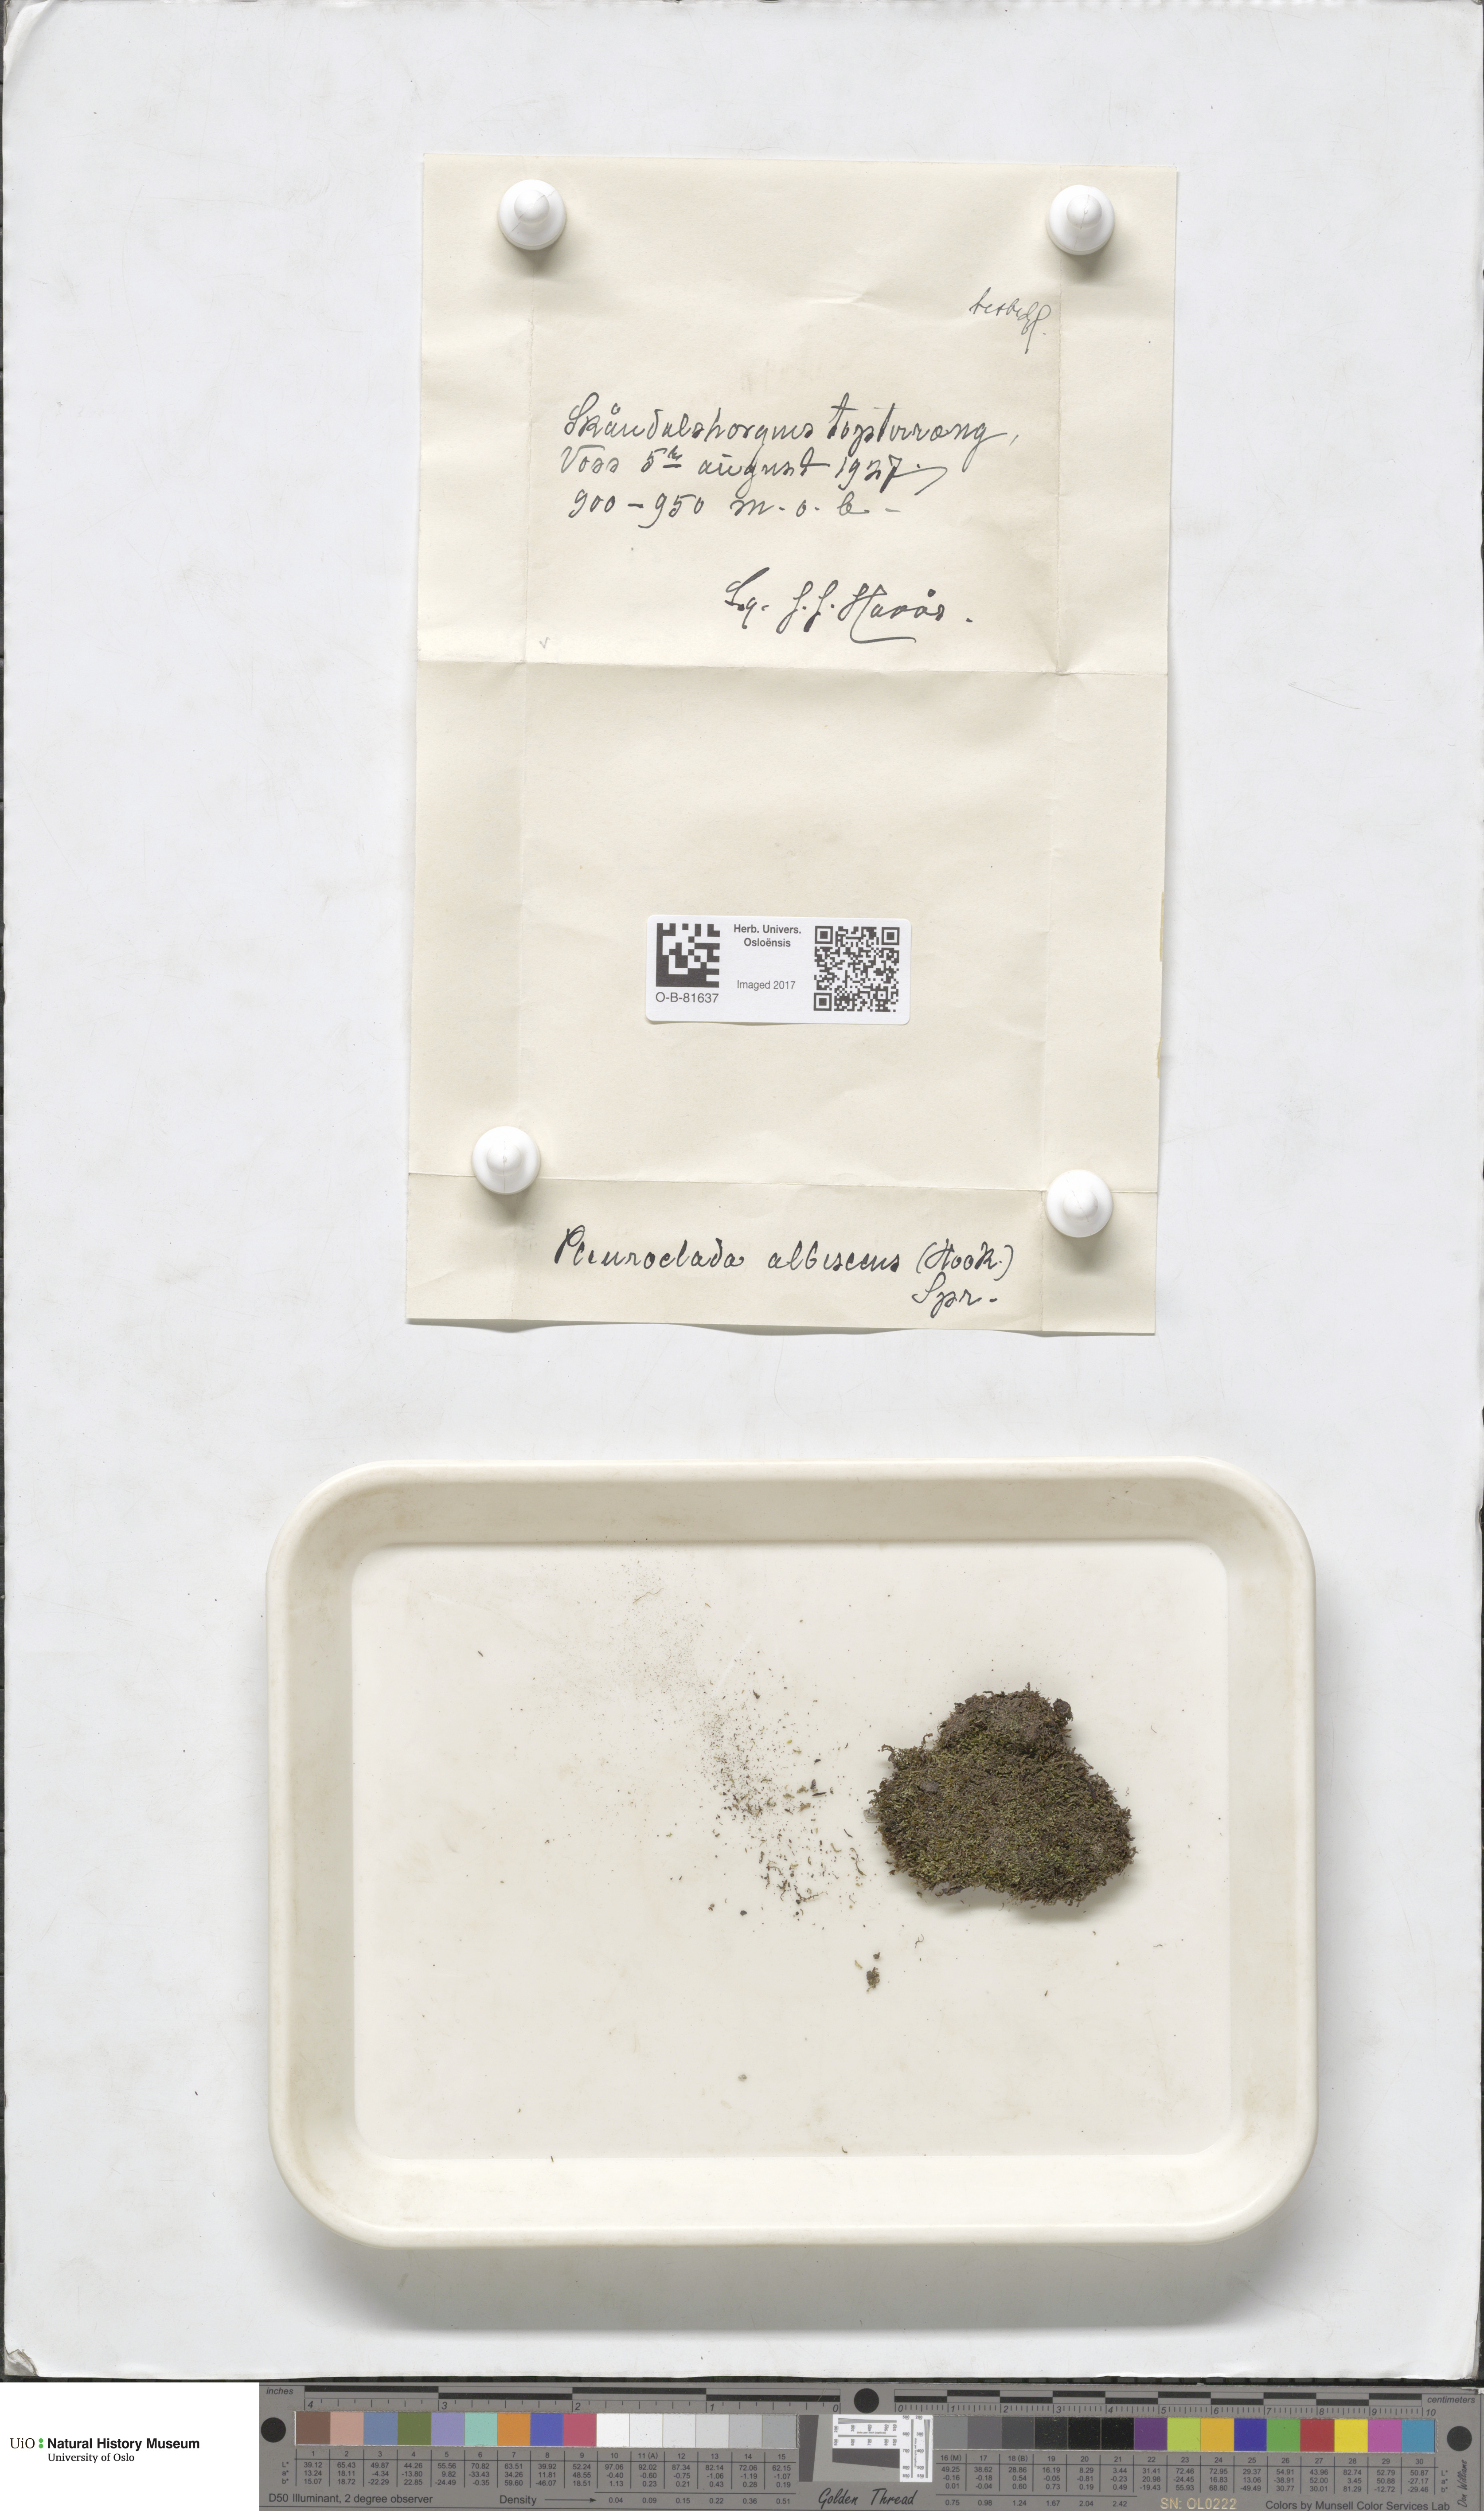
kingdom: Plantae
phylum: Marchantiophyta
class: Jungermanniopsida
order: Jungermanniales
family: Cephaloziaceae
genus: Fuscocephaloziopsis
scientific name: Fuscocephaloziopsis albescens
